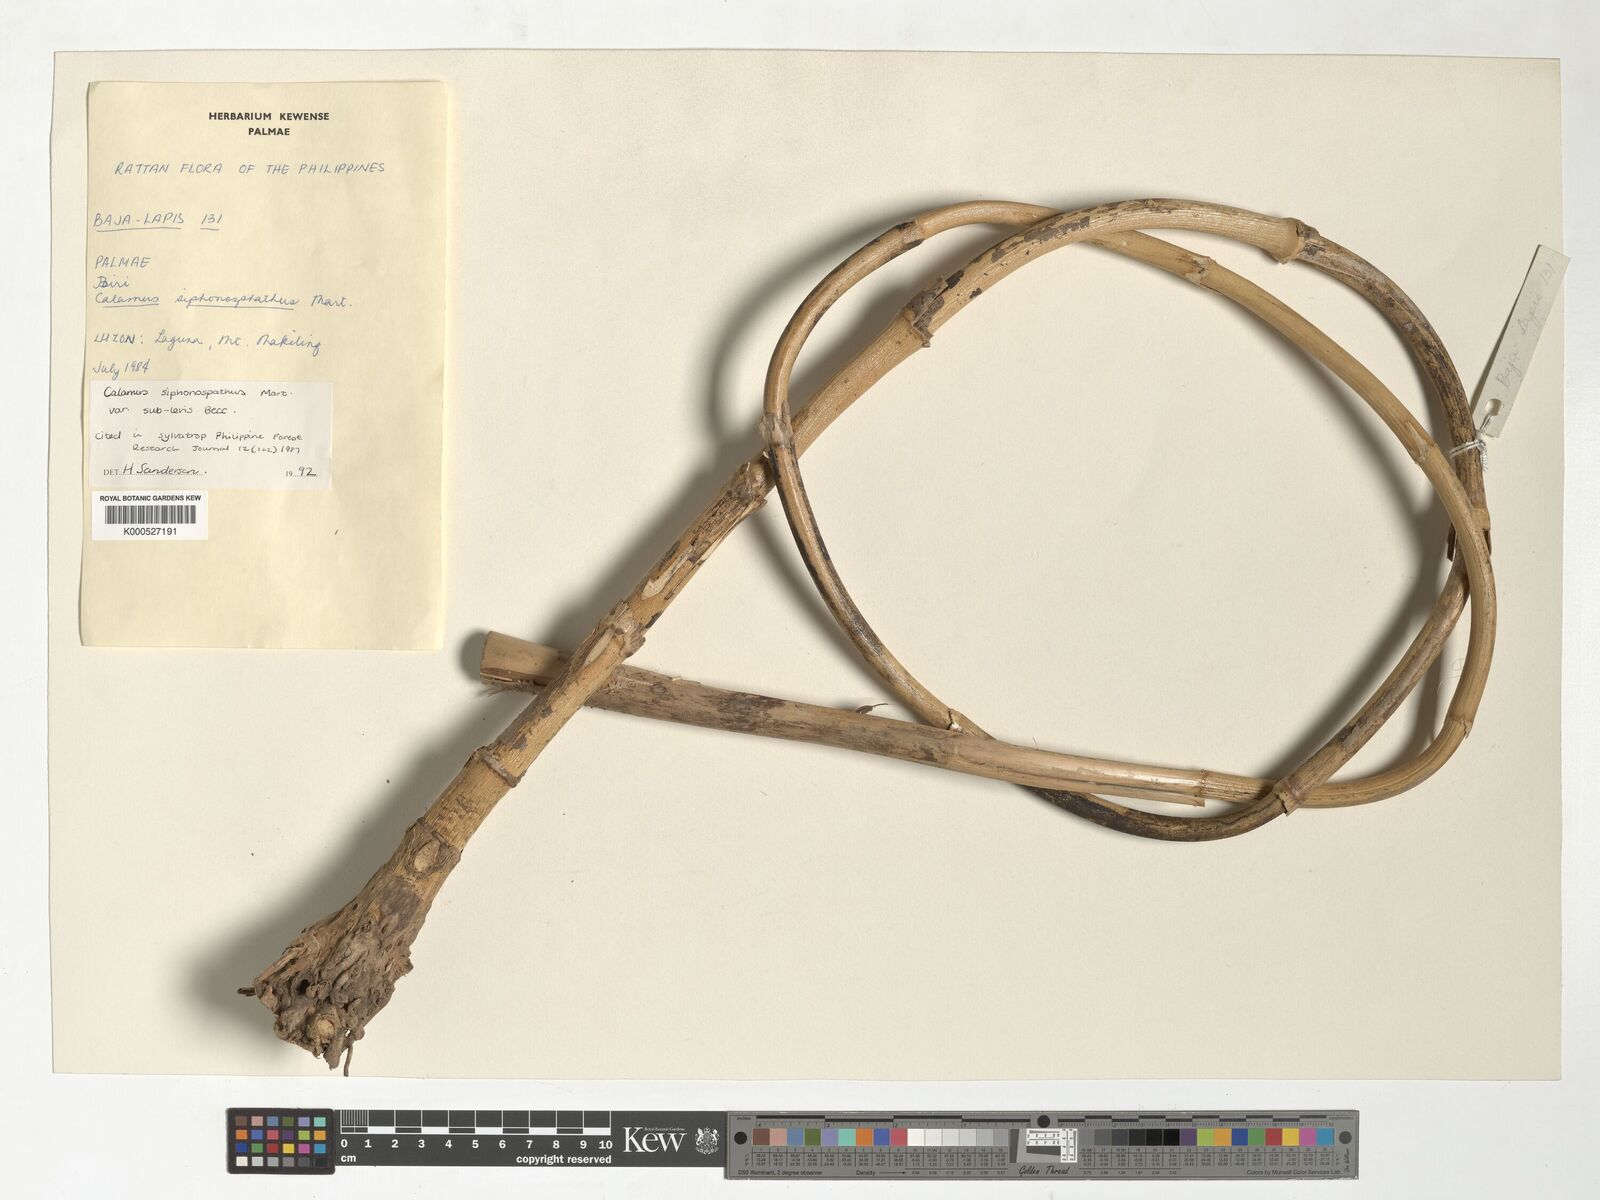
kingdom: Plantae
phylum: Tracheophyta
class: Liliopsida
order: Arecales
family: Arecaceae
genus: Calamus
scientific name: Calamus siphonospathus
